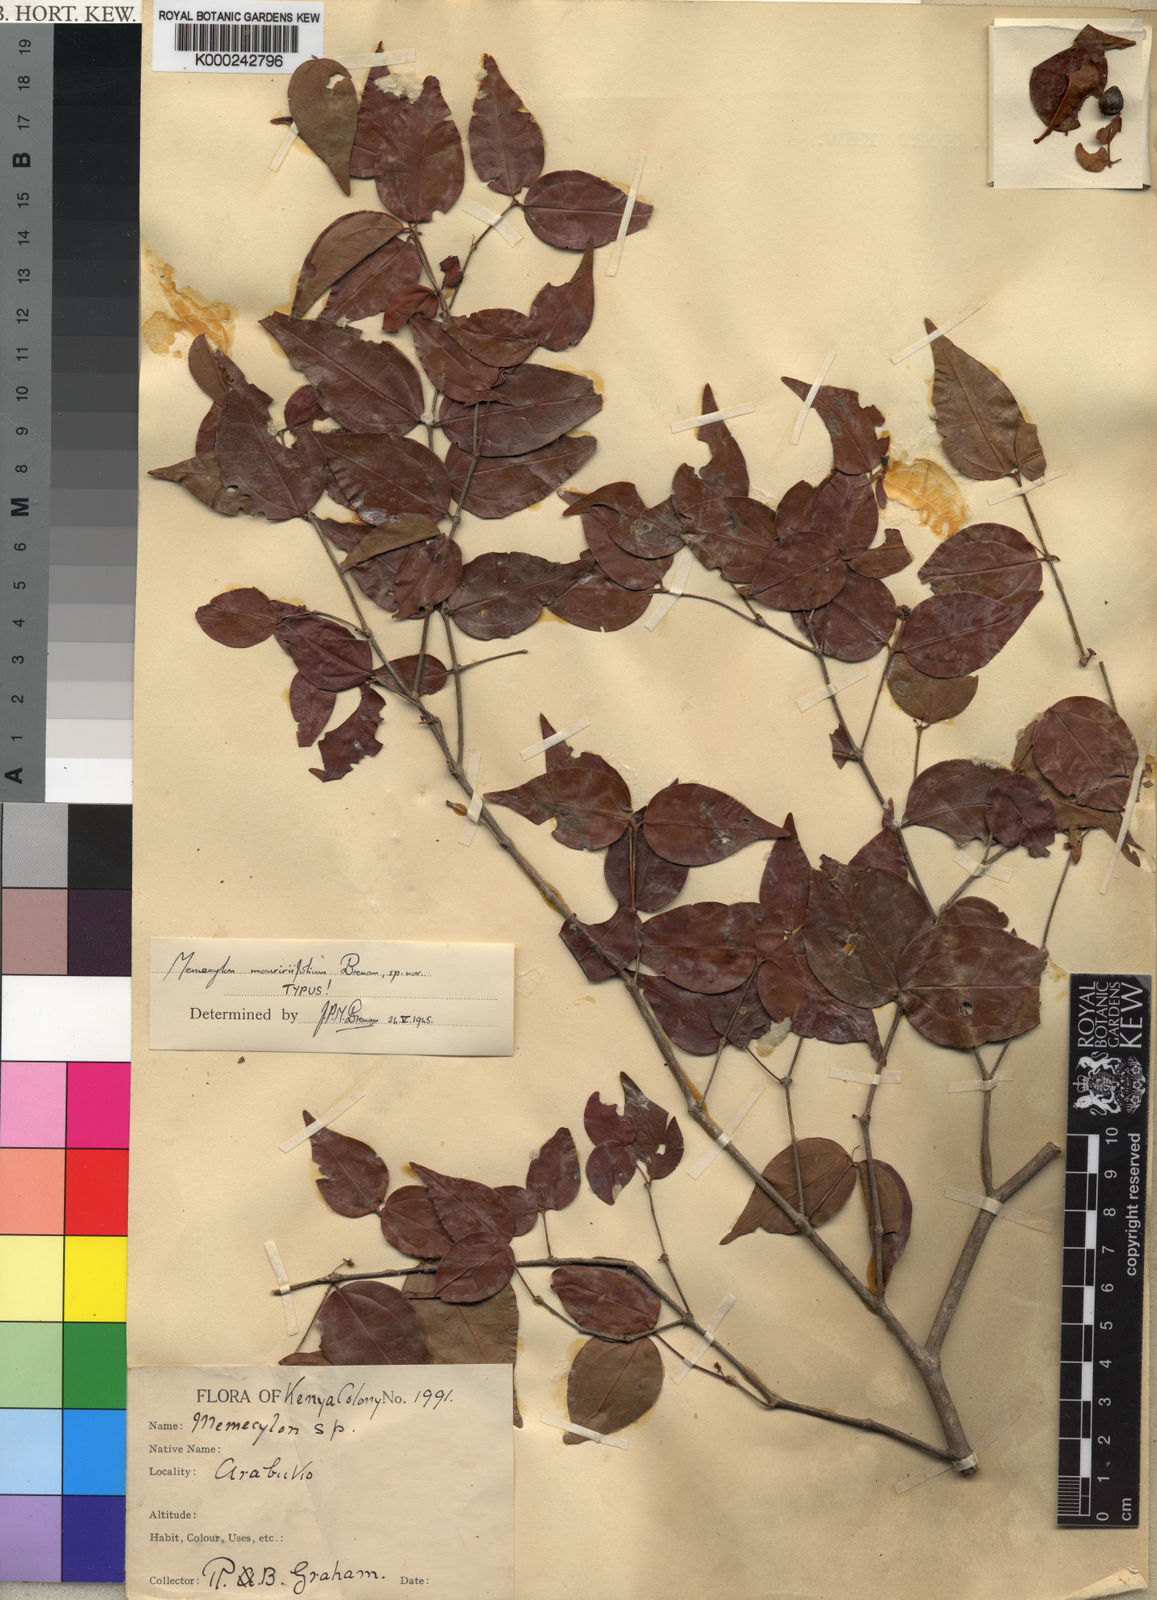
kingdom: Plantae
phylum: Tracheophyta
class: Magnoliopsida
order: Myrtales
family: Melastomataceae
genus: Warneckea
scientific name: Warneckea mouririfolia
